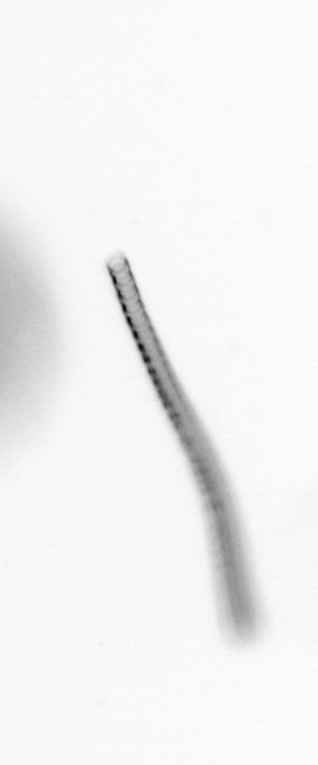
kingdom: Chromista
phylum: Ochrophyta
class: Bacillariophyceae
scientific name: Bacillariophyceae
